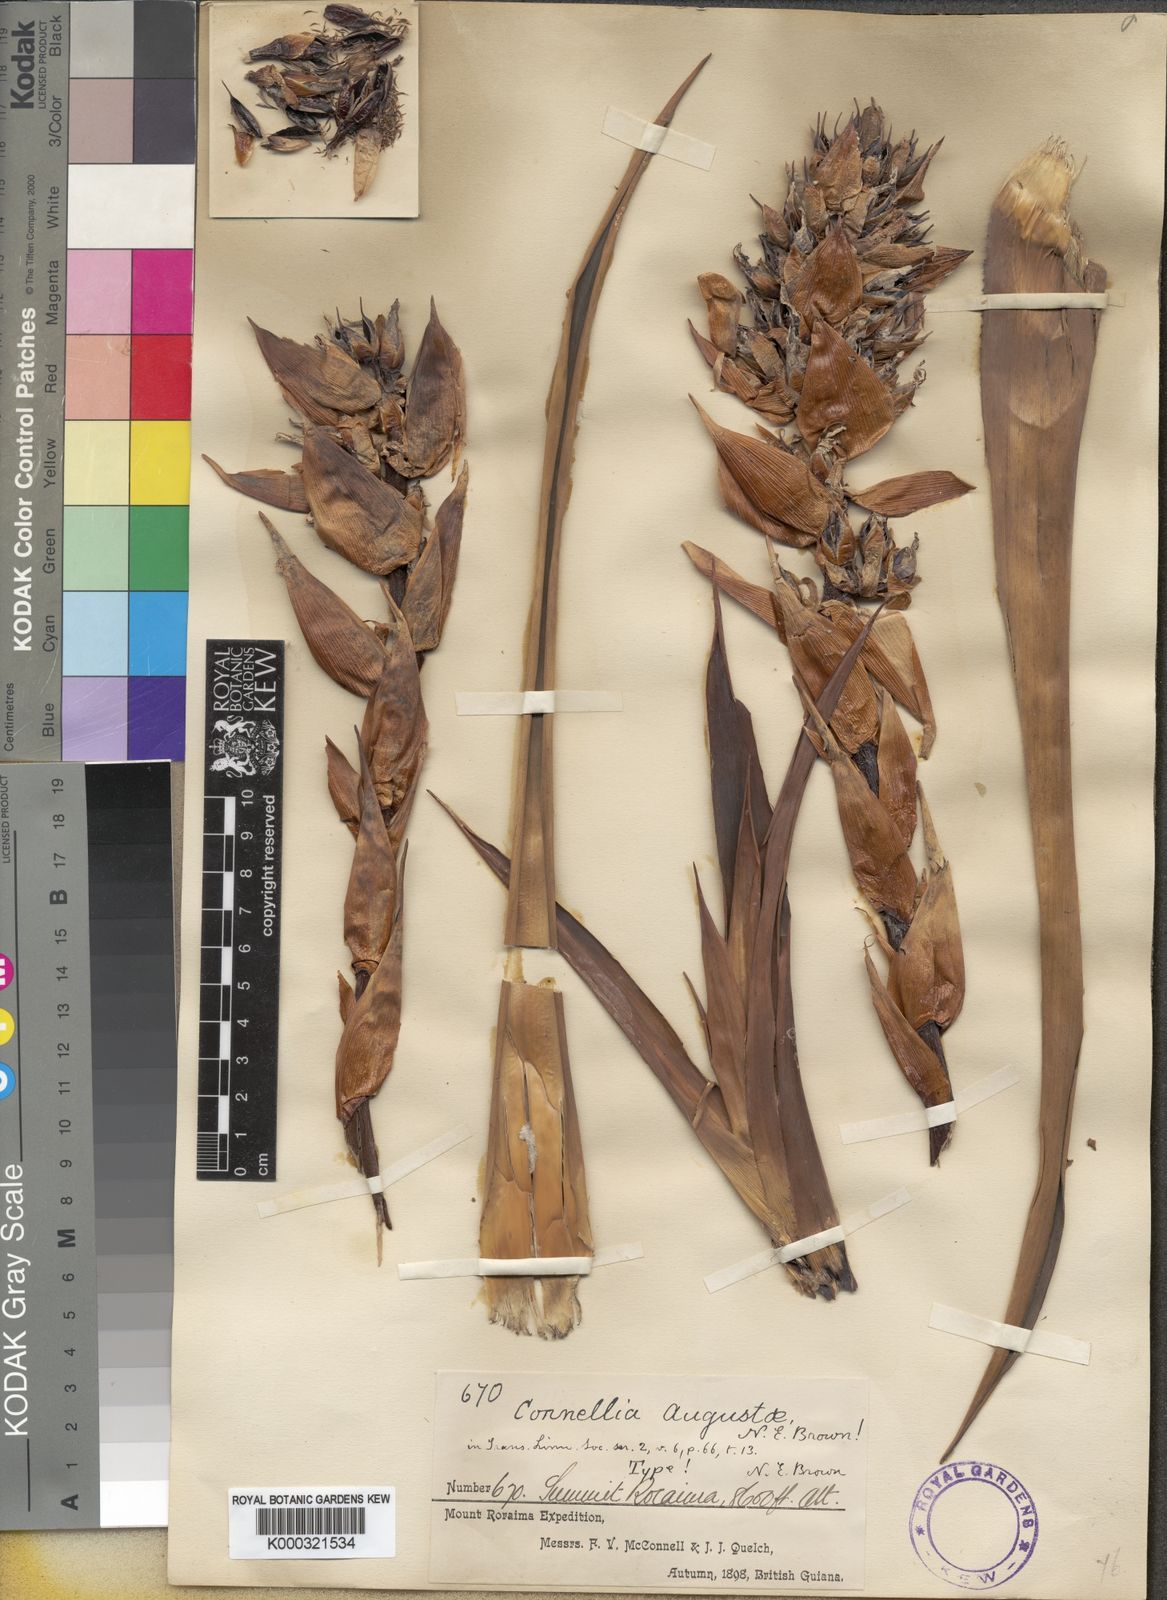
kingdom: Plantae
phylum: Tracheophyta
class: Liliopsida
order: Poales
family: Bromeliaceae
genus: Connellia
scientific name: Connellia augustae
